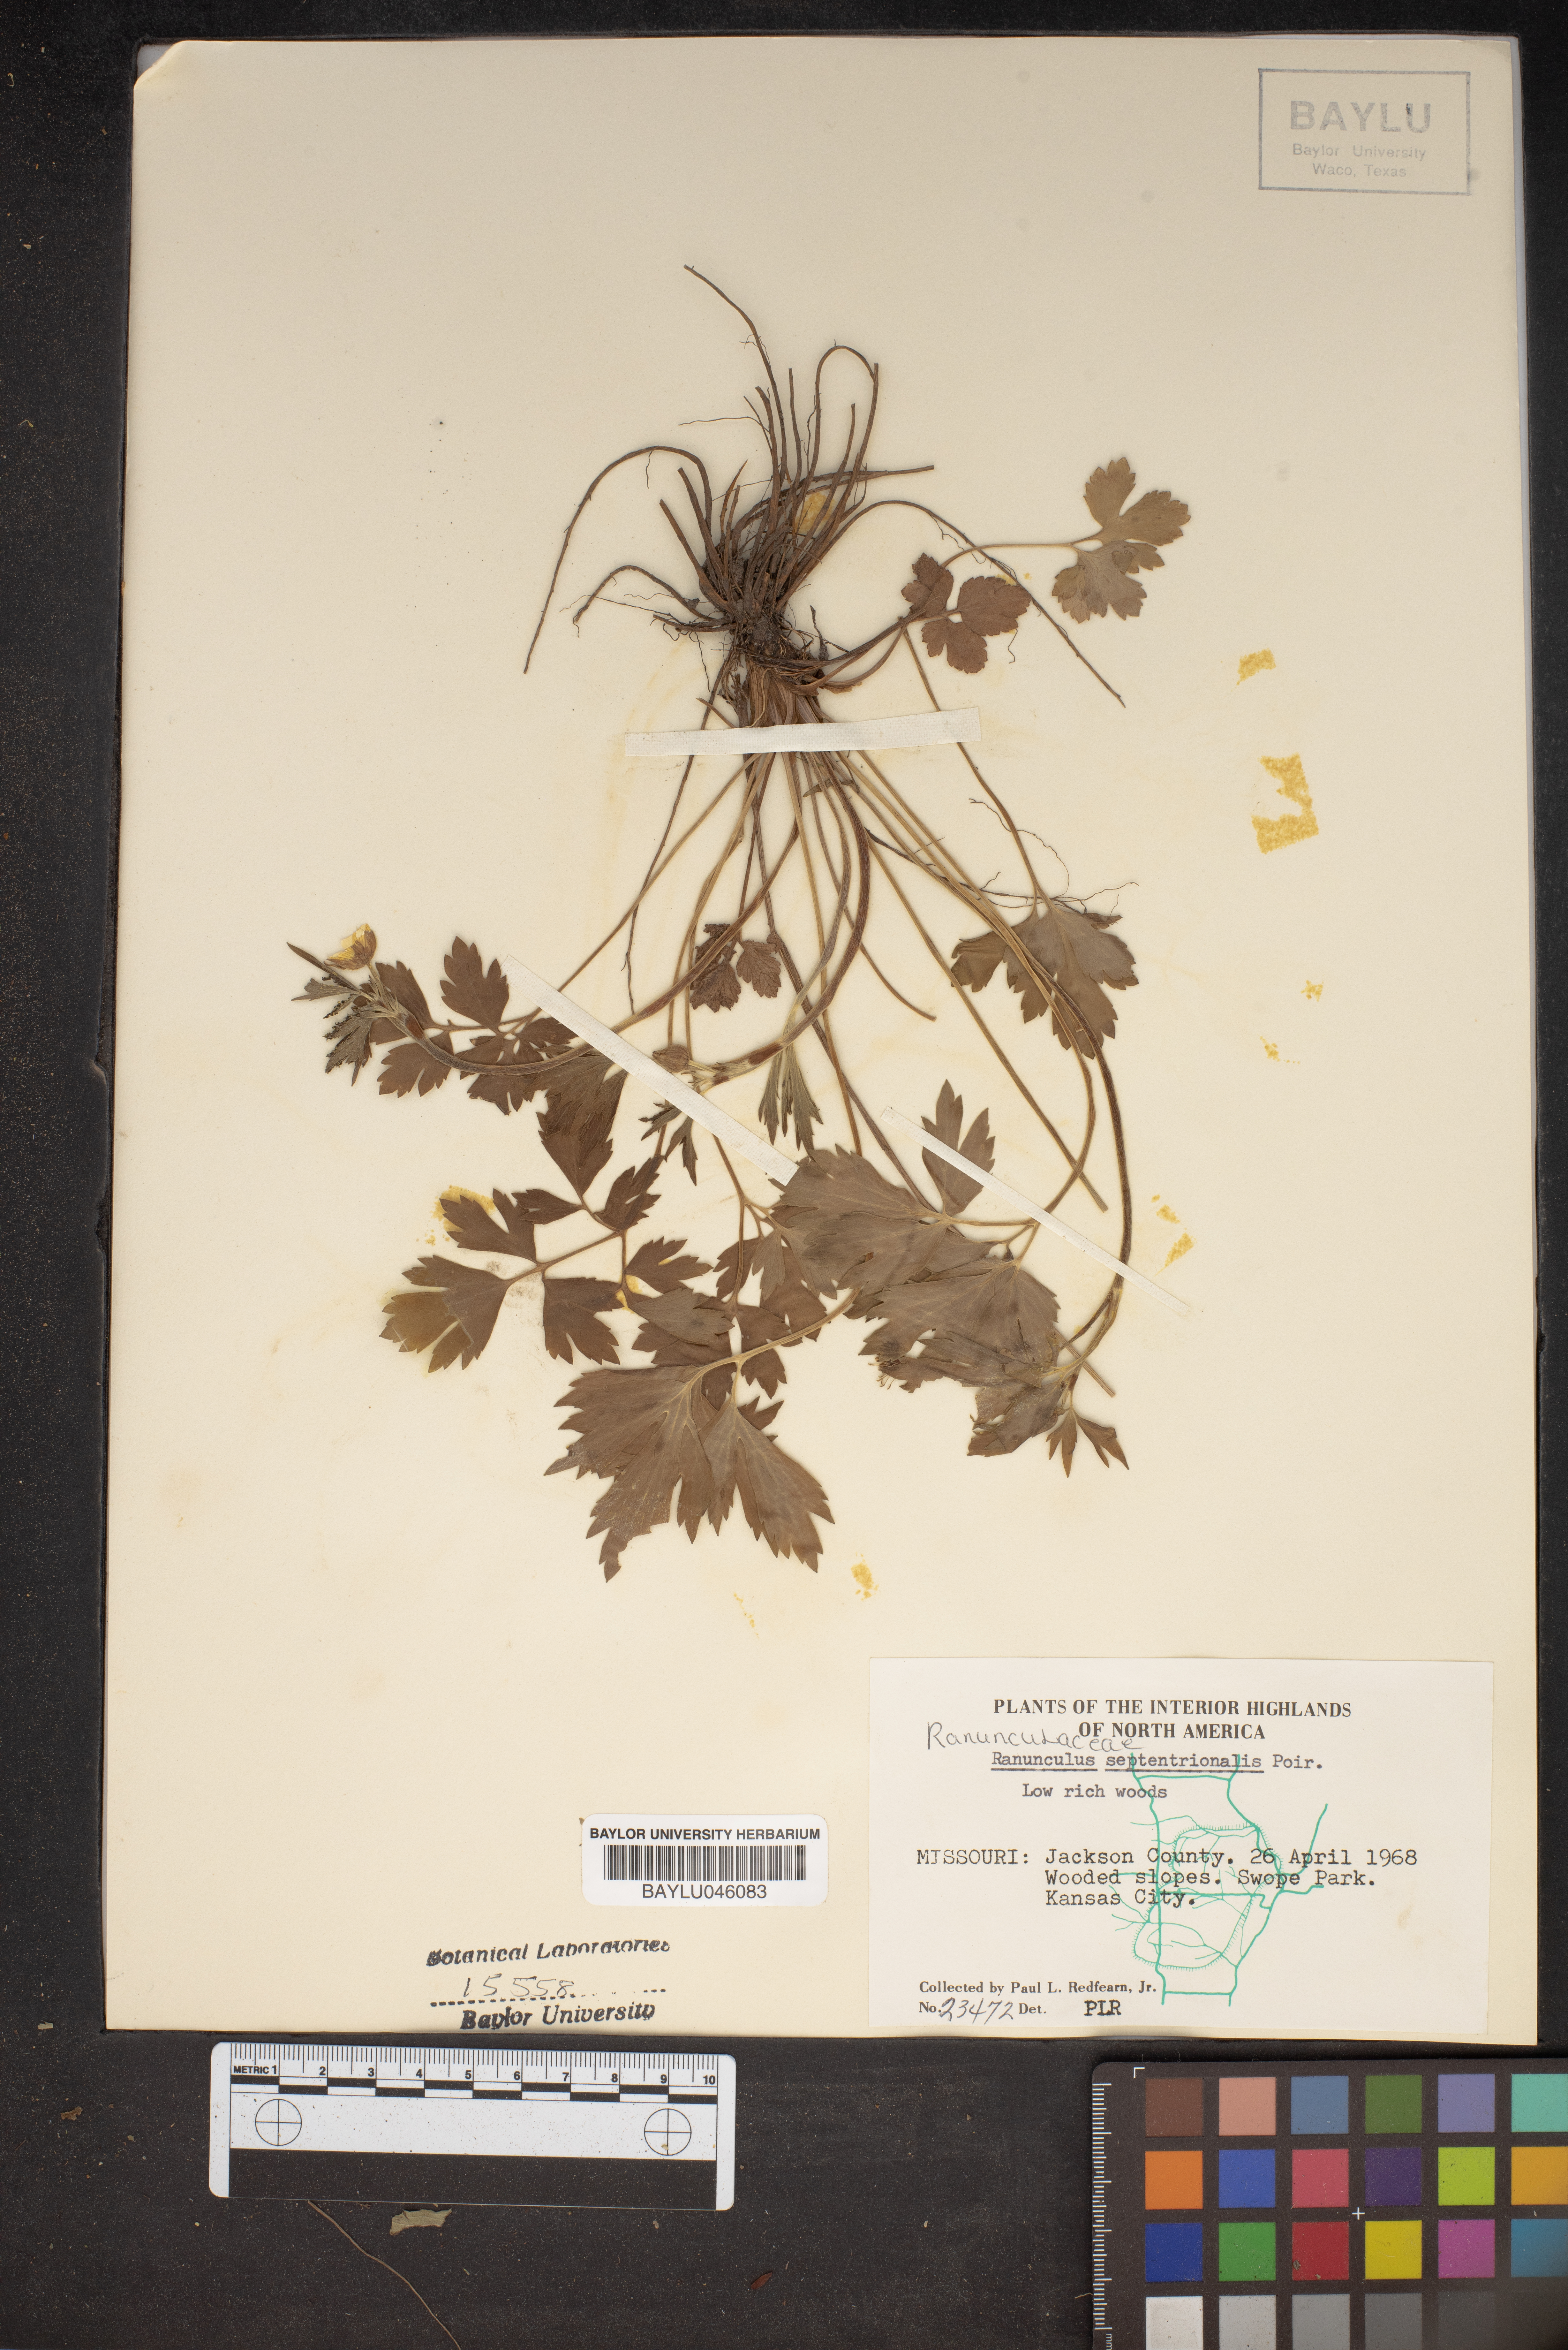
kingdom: Plantae
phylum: Tracheophyta
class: Magnoliopsida
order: Ranunculales
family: Ranunculaceae
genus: Ranunculus
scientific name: Ranunculus hispidus
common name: Bristly buttercup
